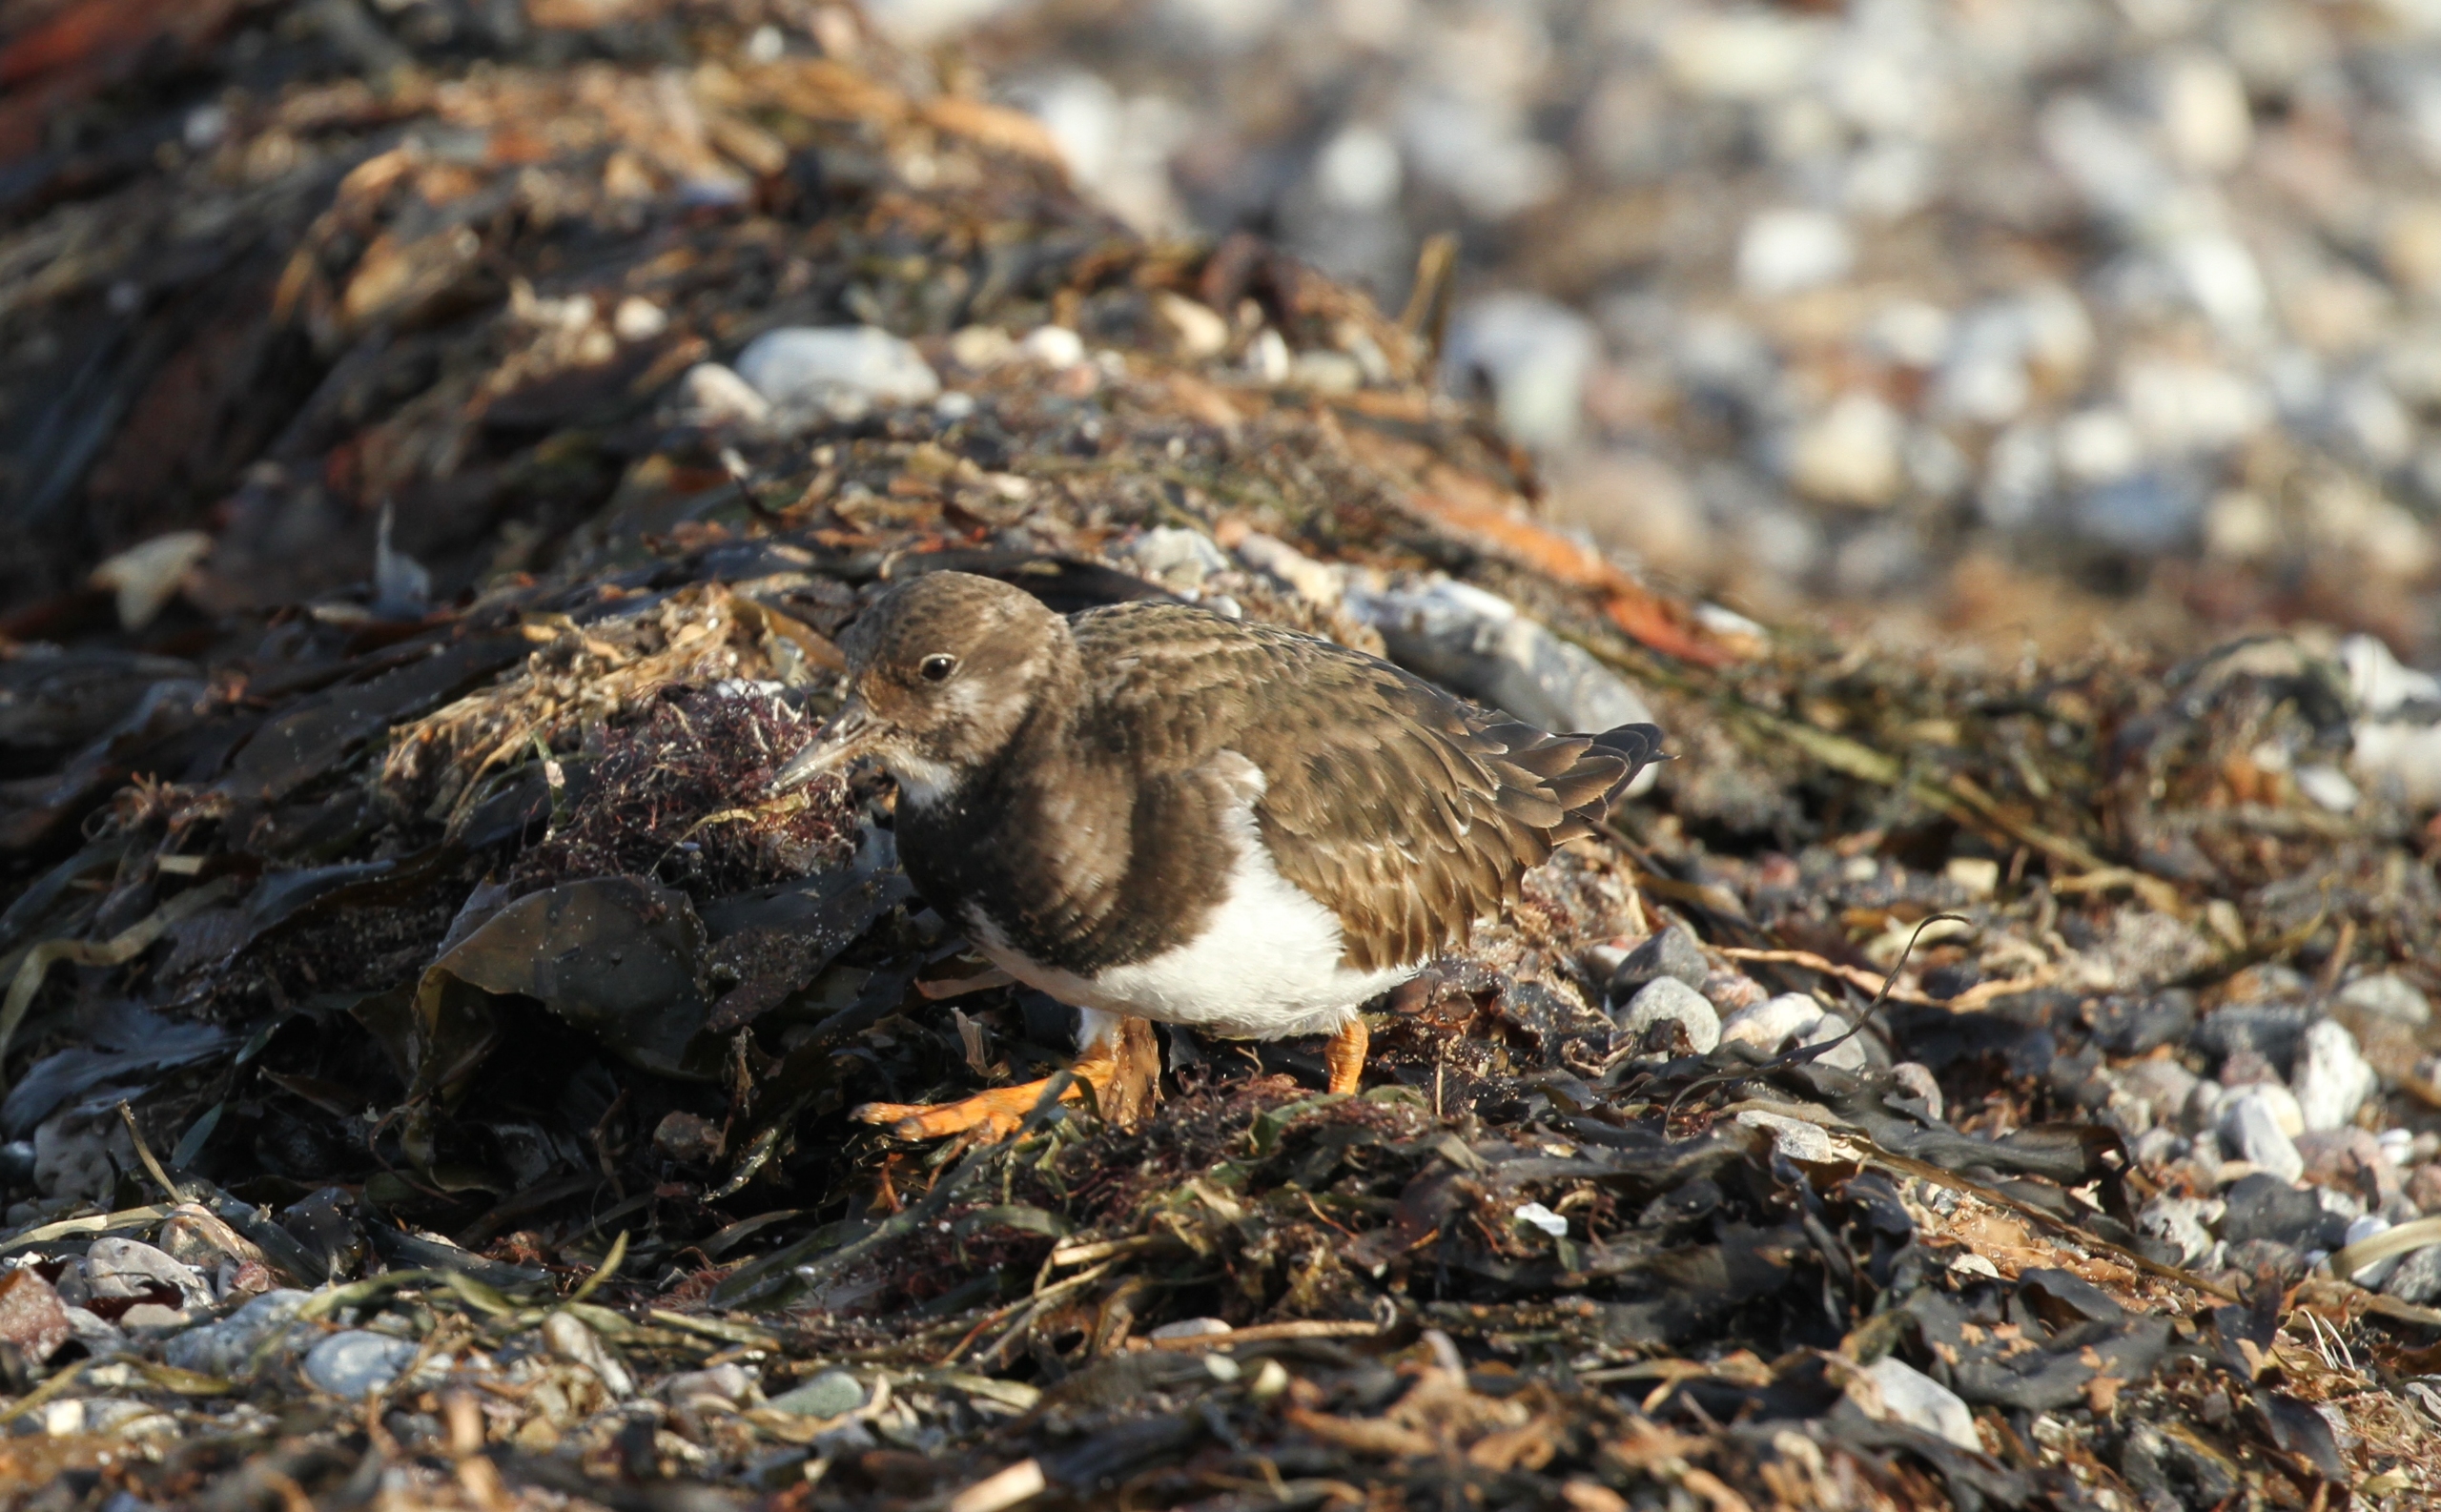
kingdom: Animalia
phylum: Chordata
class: Aves
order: Charadriiformes
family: Scolopacidae
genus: Arenaria
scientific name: Arenaria interpres
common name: Stenvender
